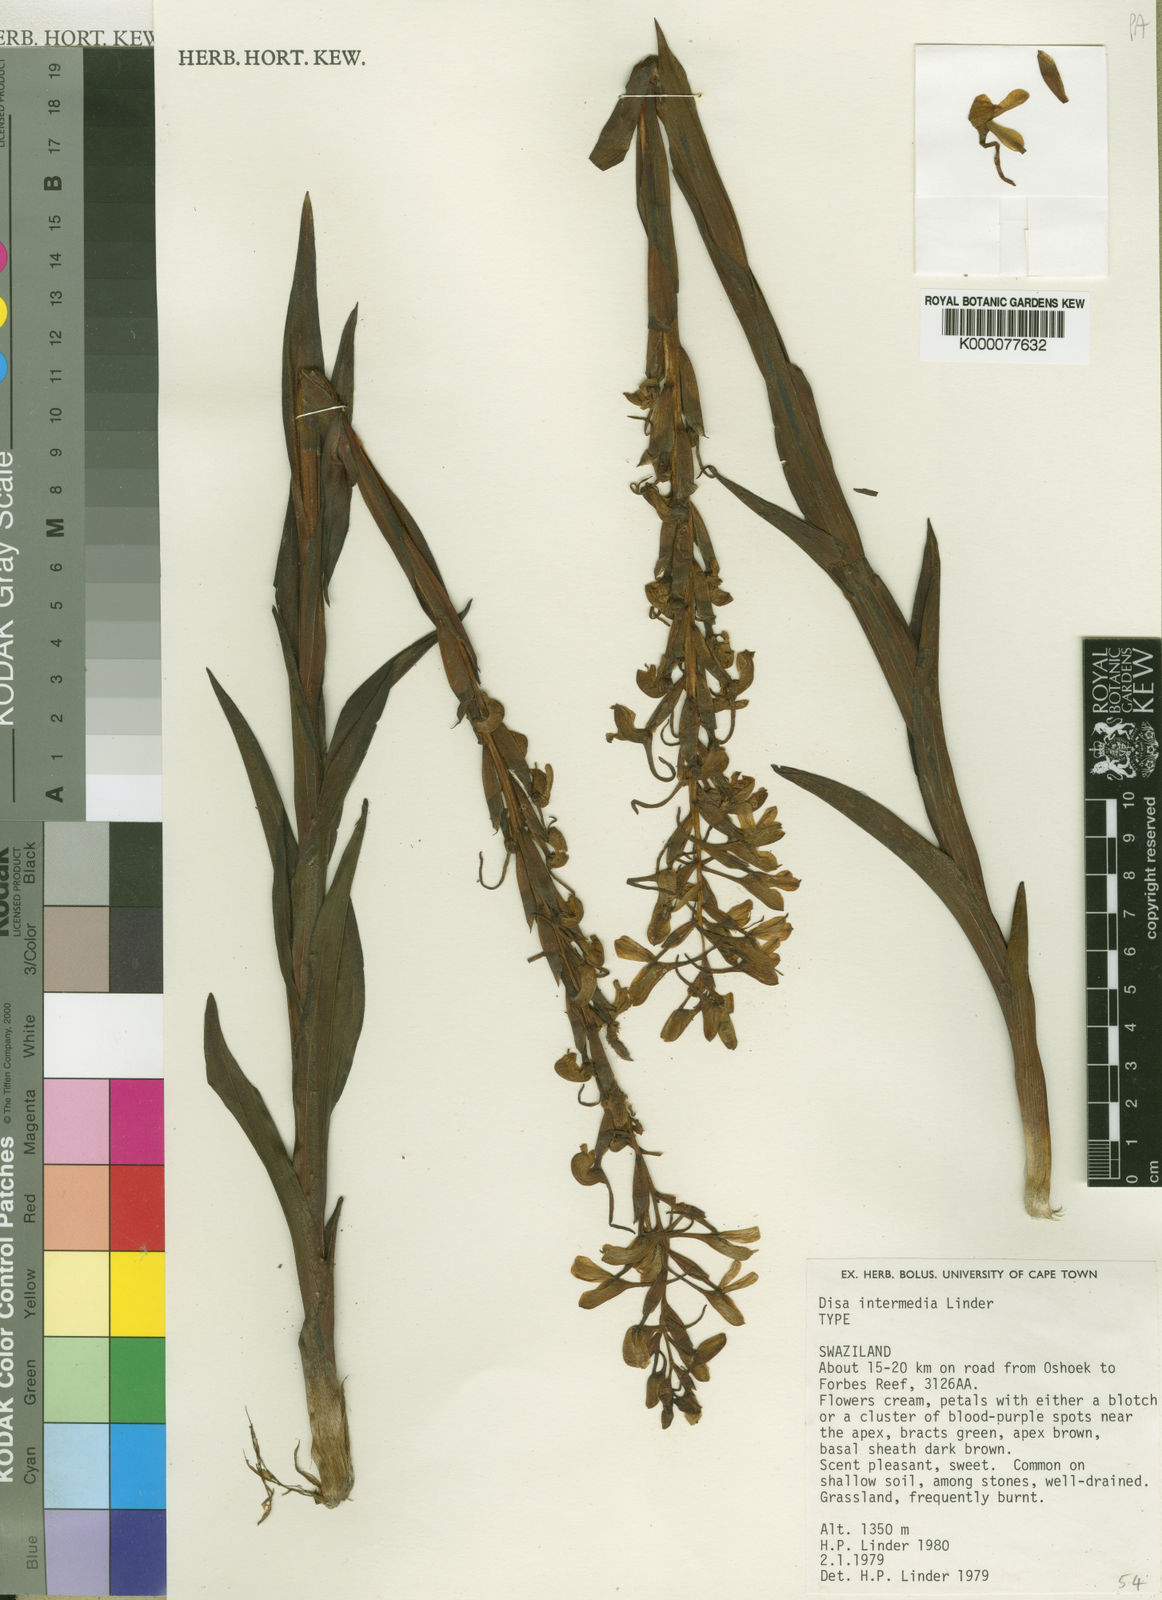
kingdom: Plantae
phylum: Tracheophyta
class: Liliopsida
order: Asparagales
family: Orchidaceae
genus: Disa
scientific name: Disa intermedia
